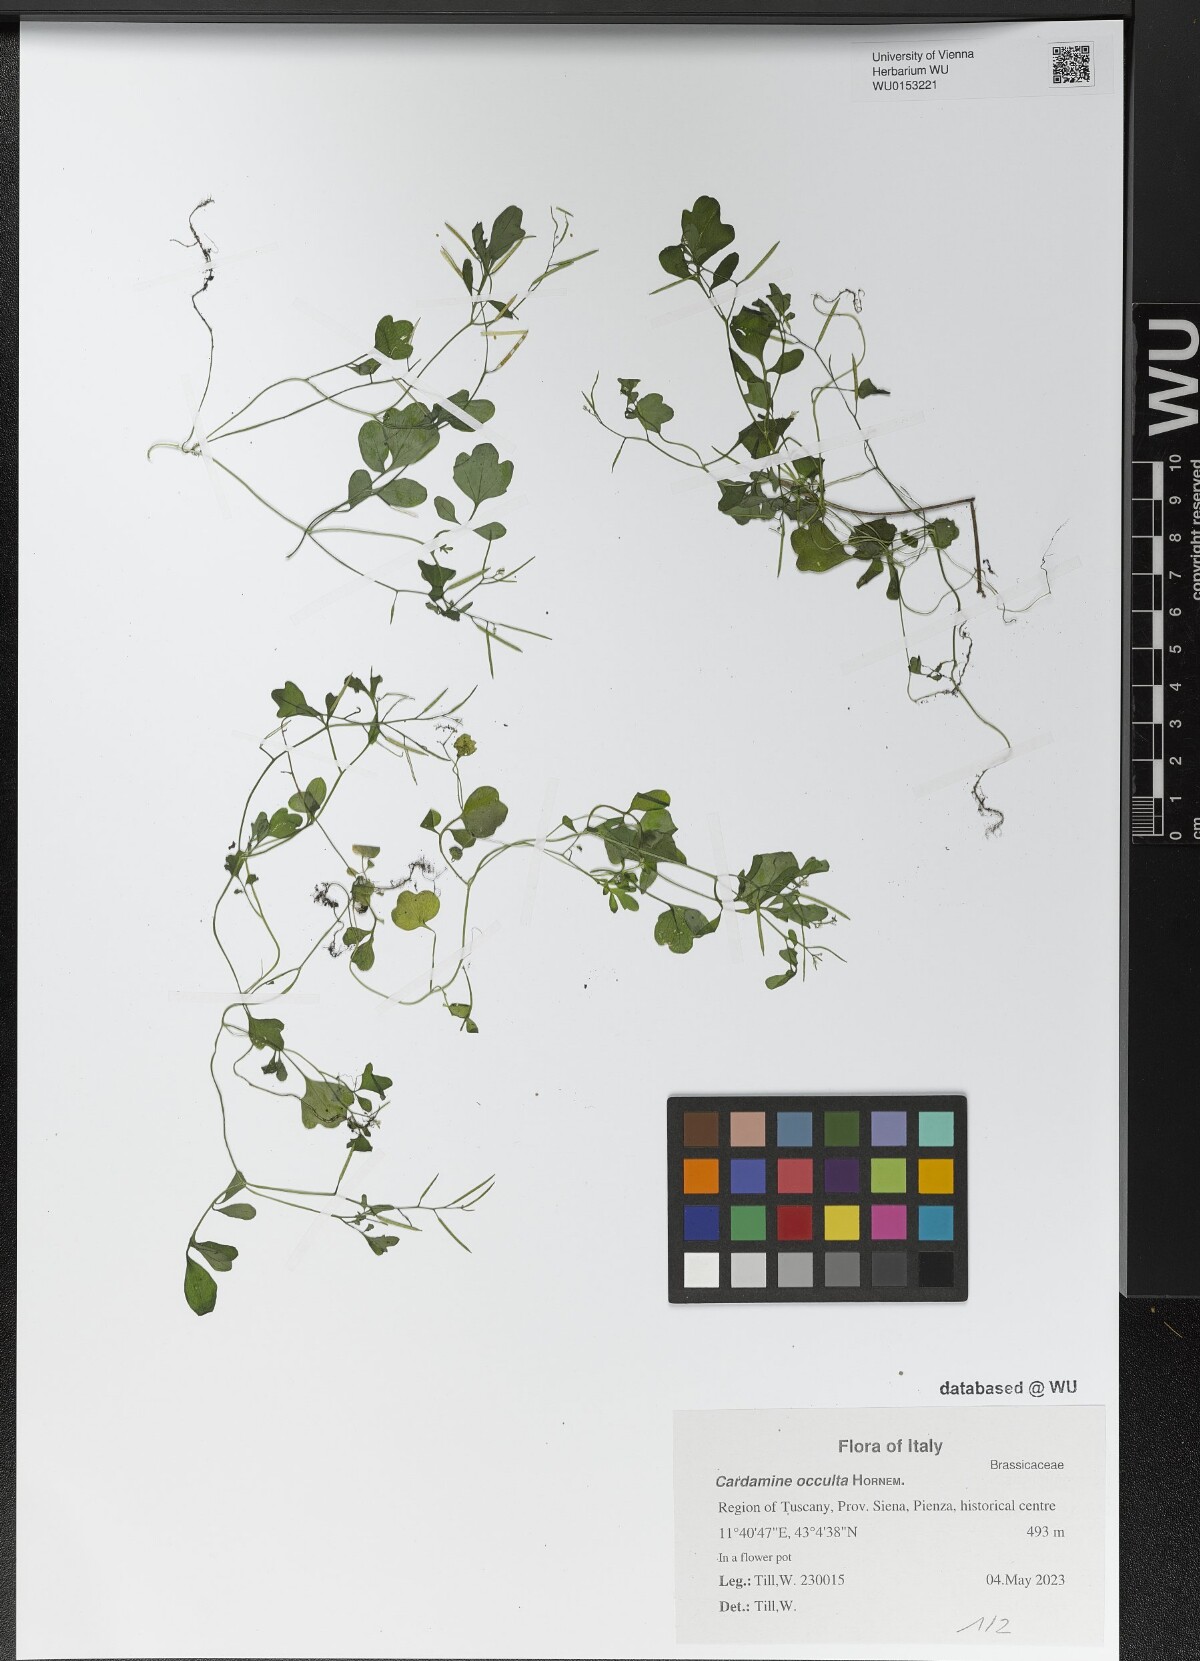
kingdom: Plantae
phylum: Tracheophyta
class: Magnoliopsida
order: Brassicales
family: Brassicaceae
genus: Cardamine
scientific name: Cardamine occulta
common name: Asian wavy bittercress
